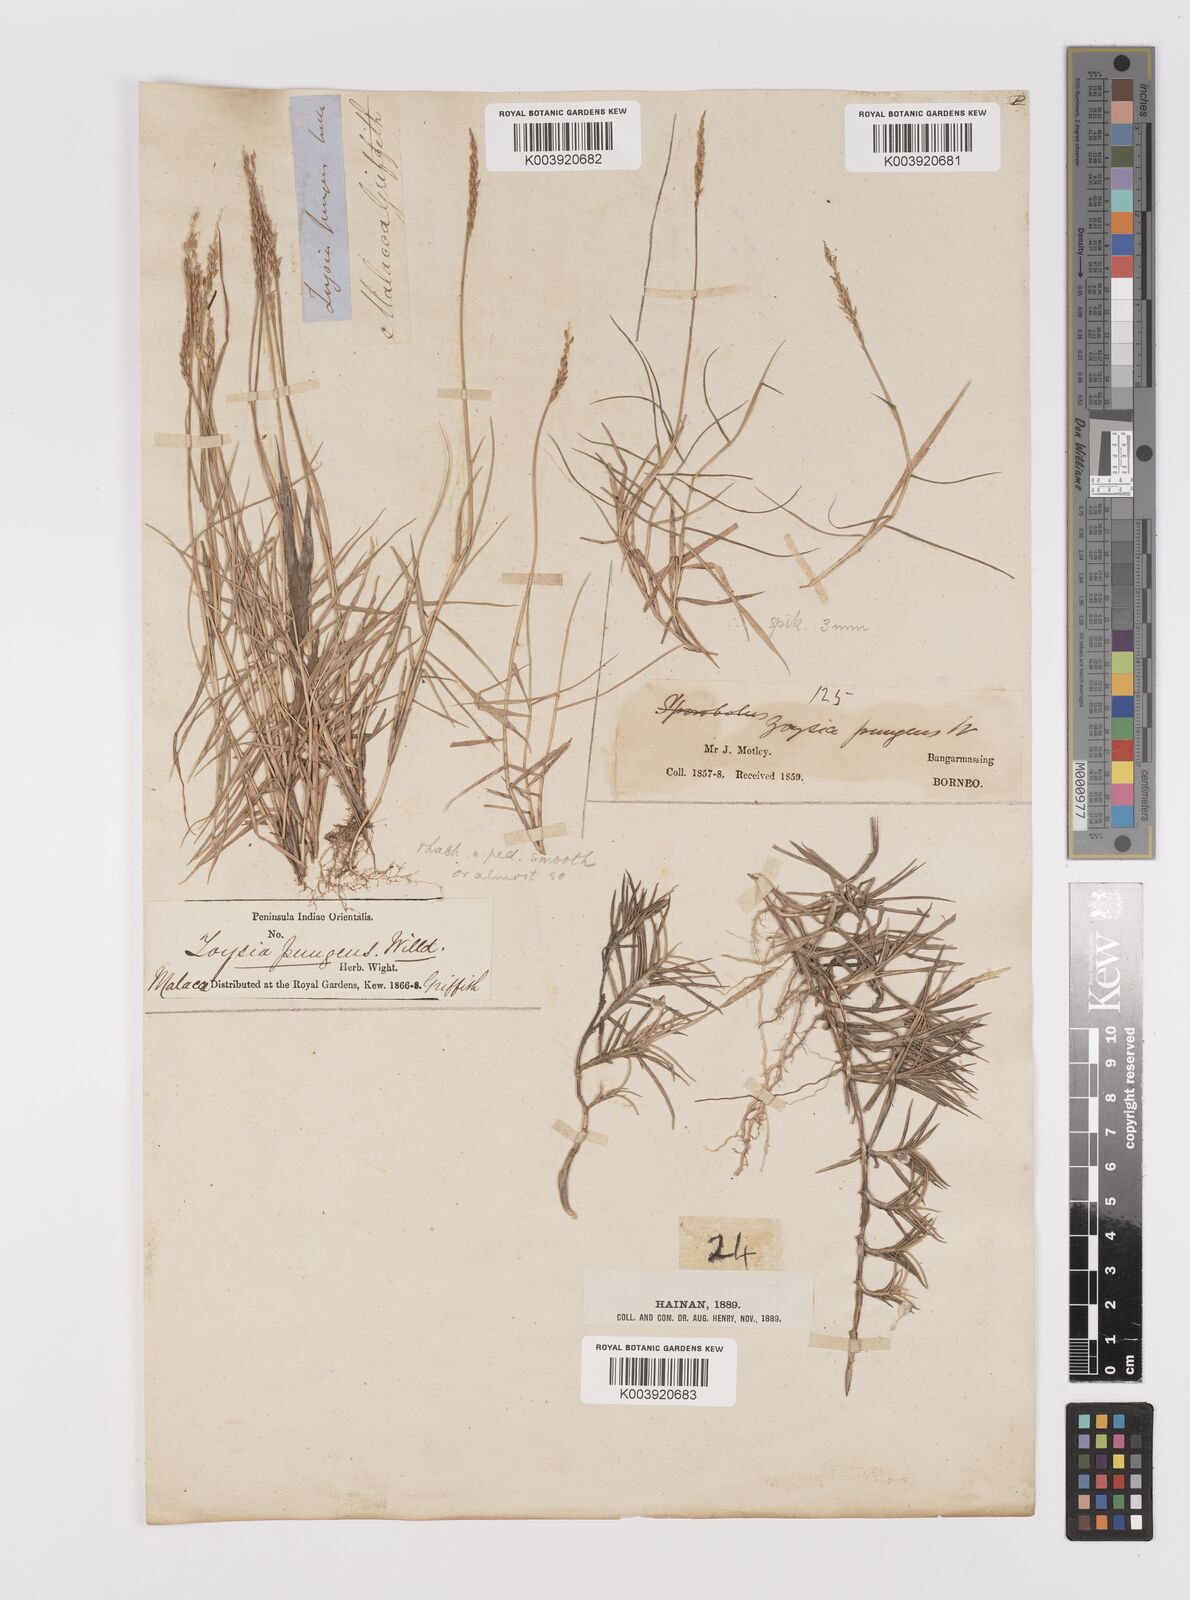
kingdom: Plantae
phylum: Tracheophyta
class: Liliopsida
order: Poales
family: Poaceae
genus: Zoysia
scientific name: Zoysia matrella
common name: Manila grass
